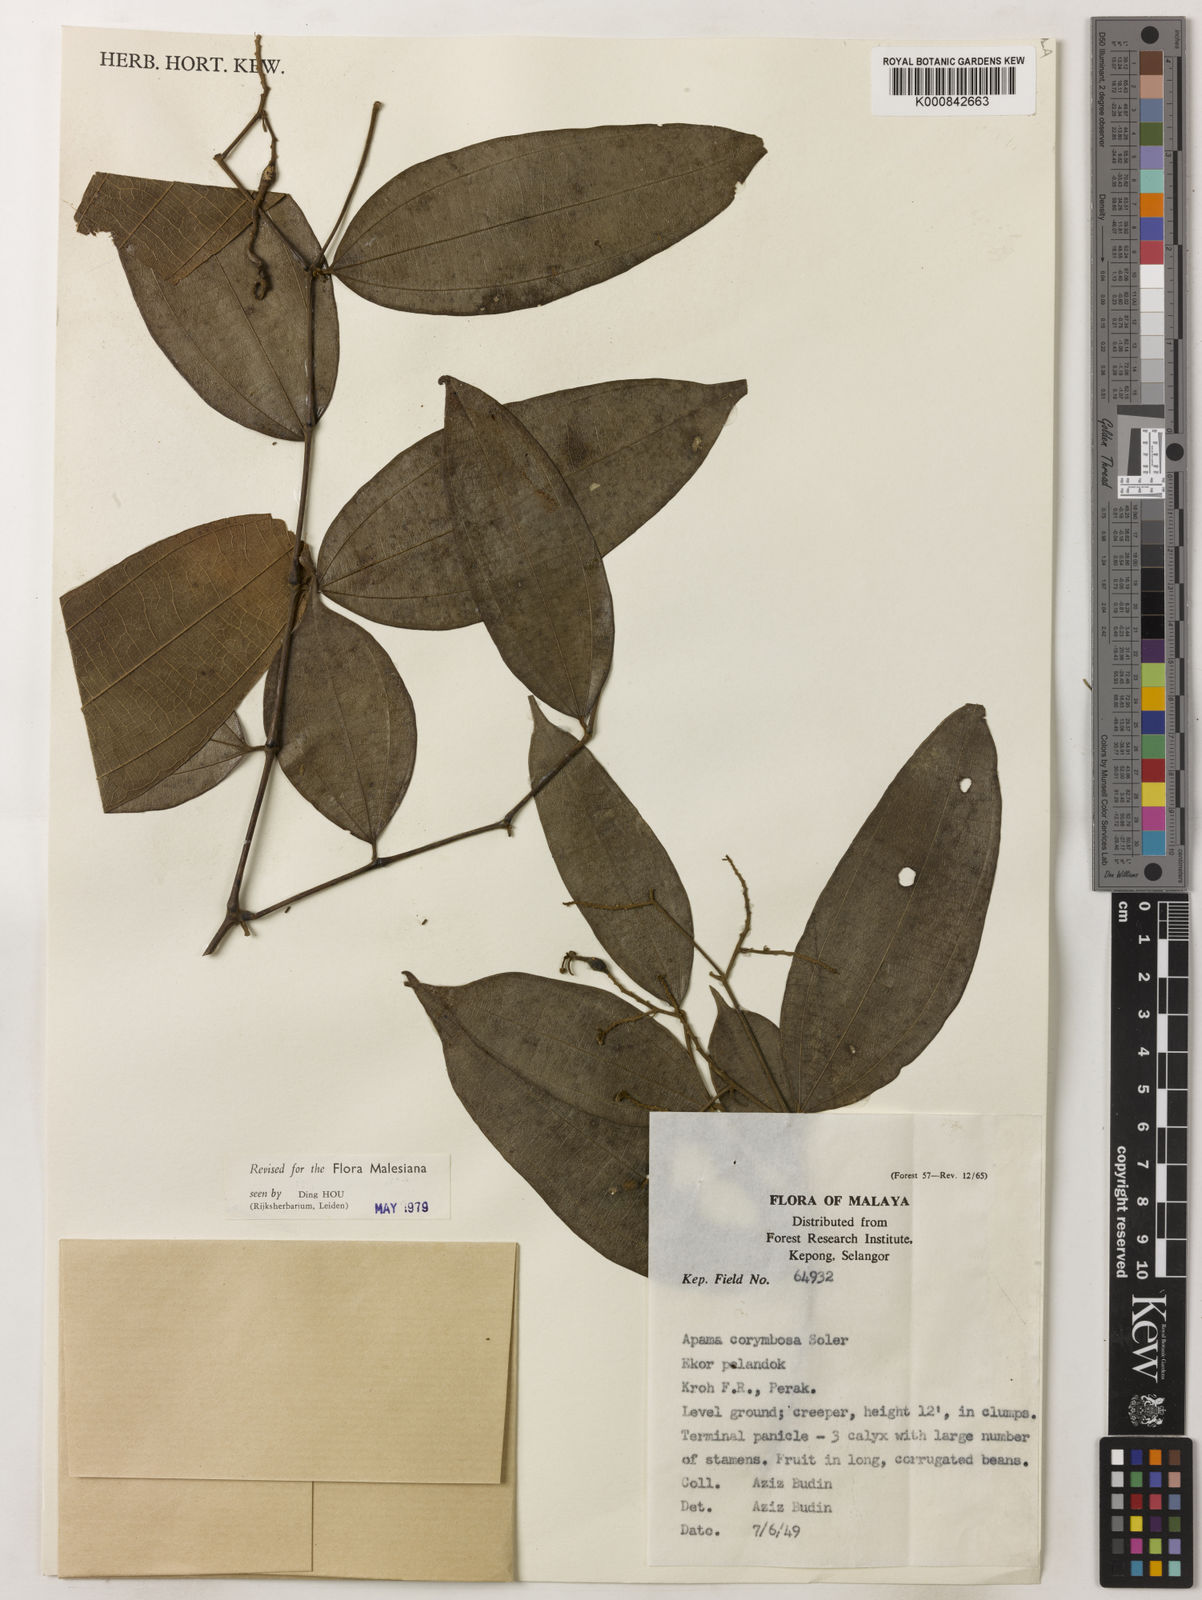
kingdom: Plantae
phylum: Tracheophyta
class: Magnoliopsida
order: Piperales
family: Aristolochiaceae
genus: Thottea
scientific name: Thottea piperiformis
